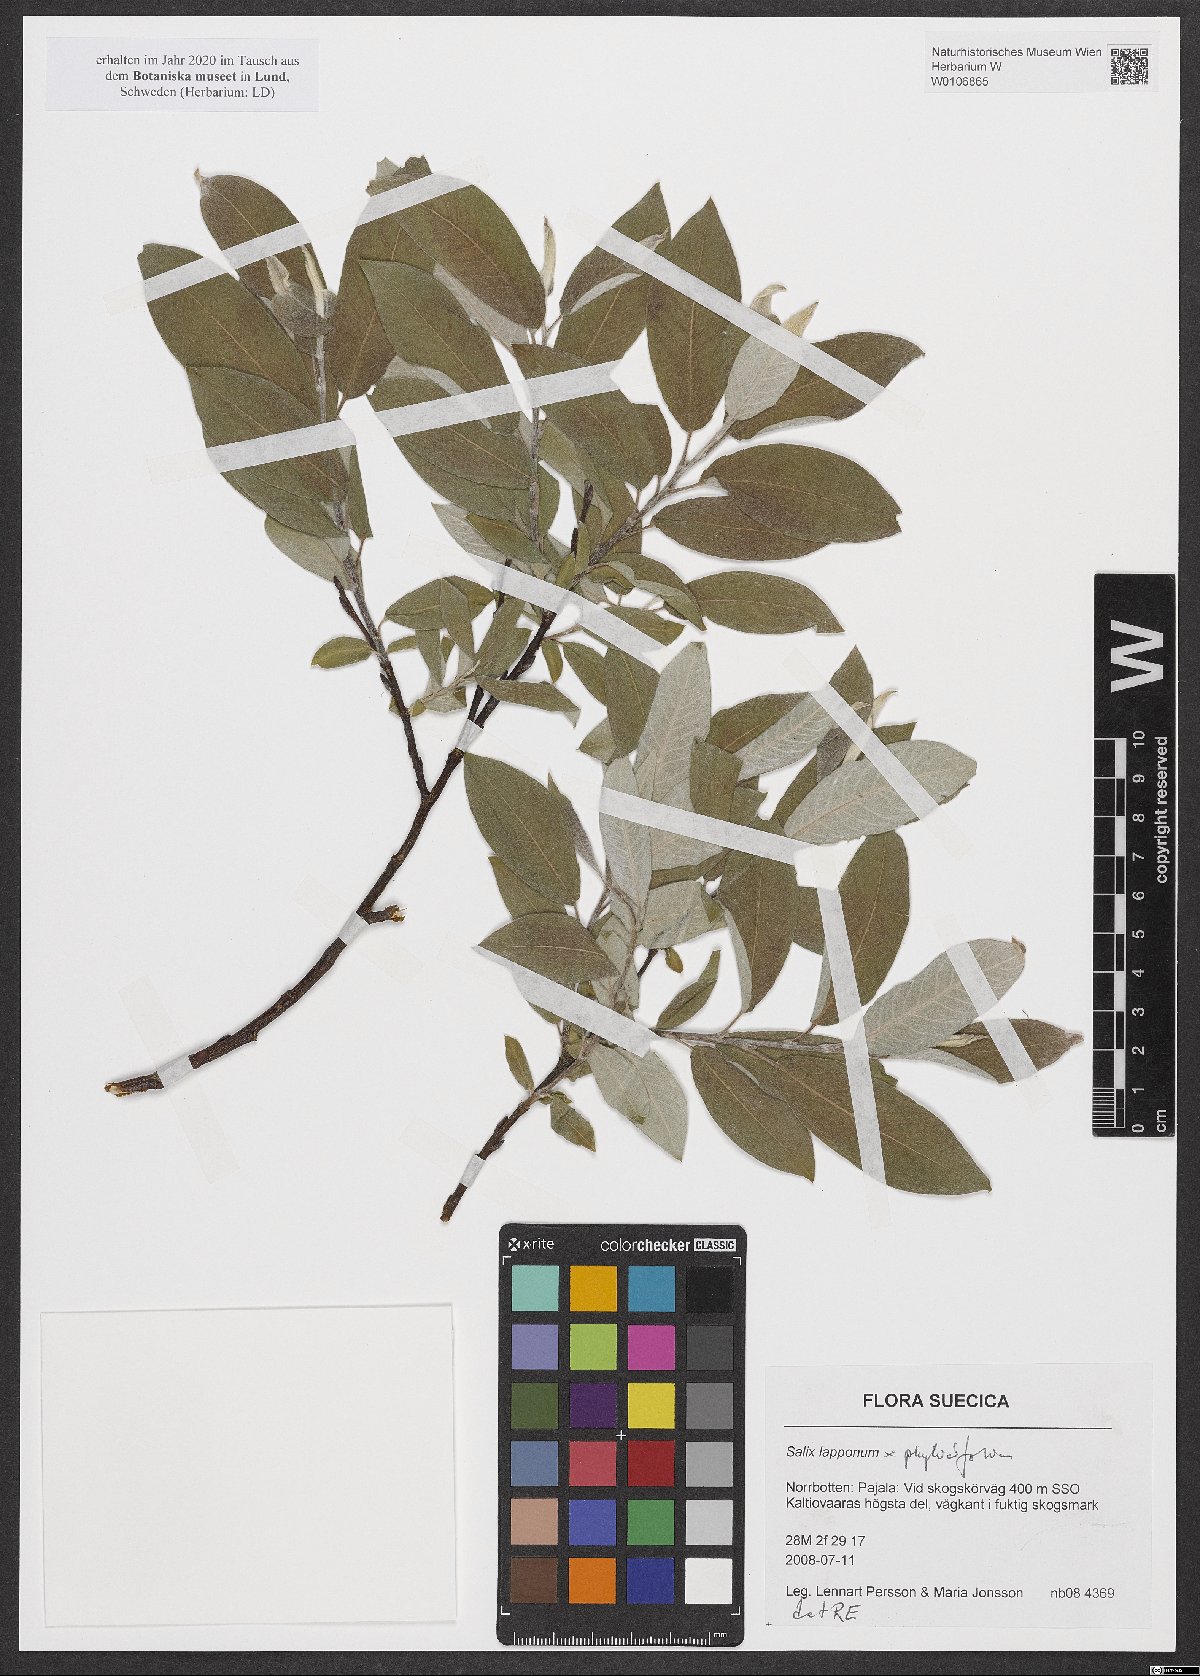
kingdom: Plantae
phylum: Tracheophyta
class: Magnoliopsida
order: Malpighiales
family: Salicaceae
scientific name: Salicaceae
